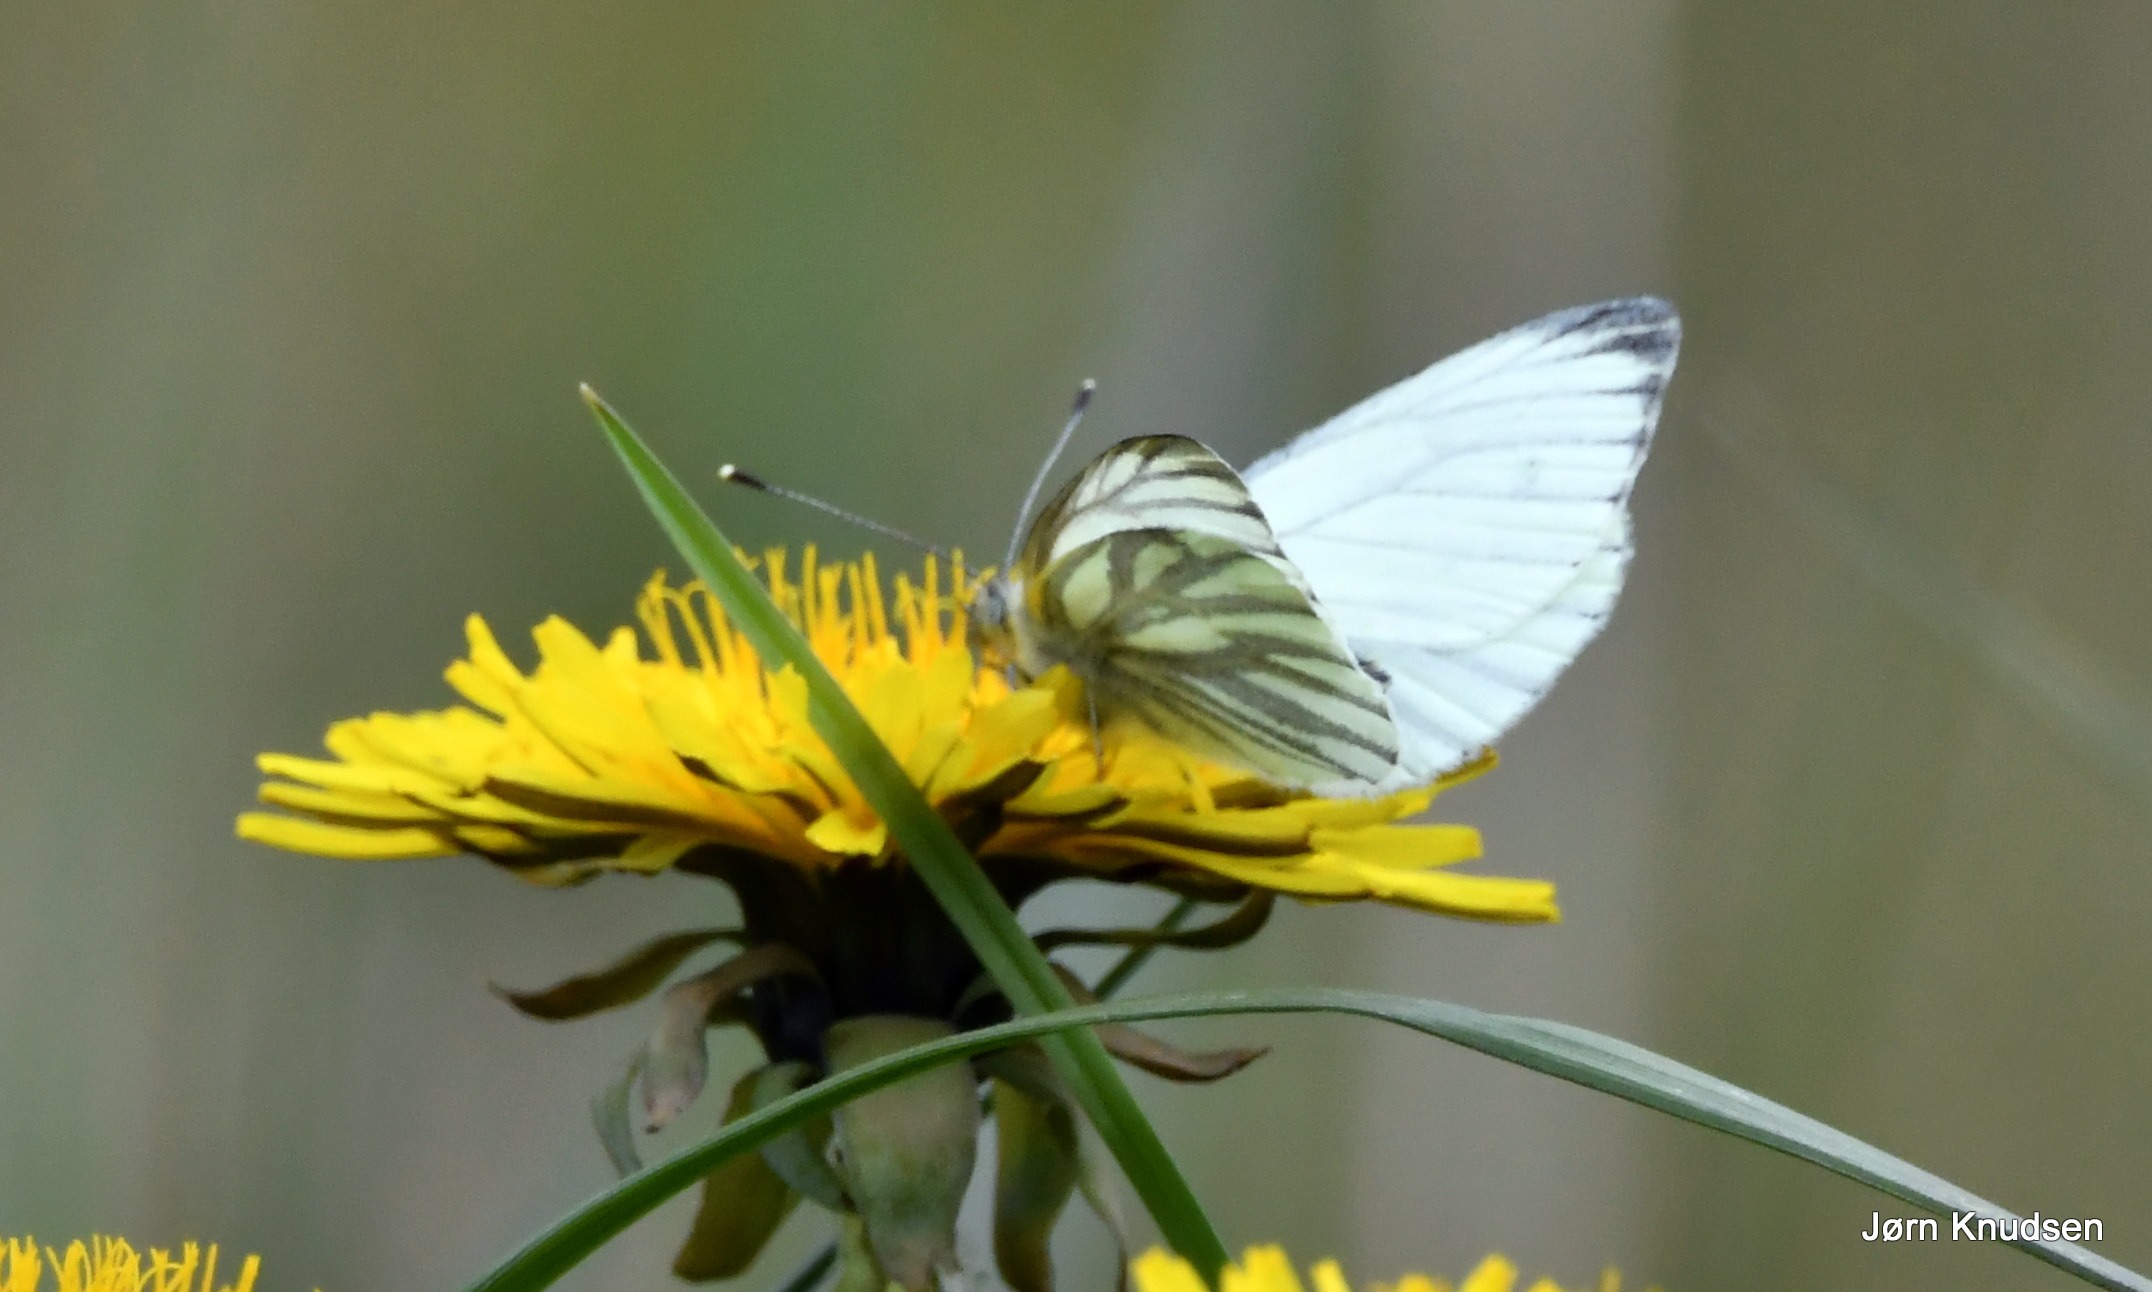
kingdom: Animalia
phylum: Arthropoda
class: Insecta
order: Lepidoptera
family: Pieridae
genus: Pieris
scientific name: Pieris napi
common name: Grønåret kålsommerfugl
